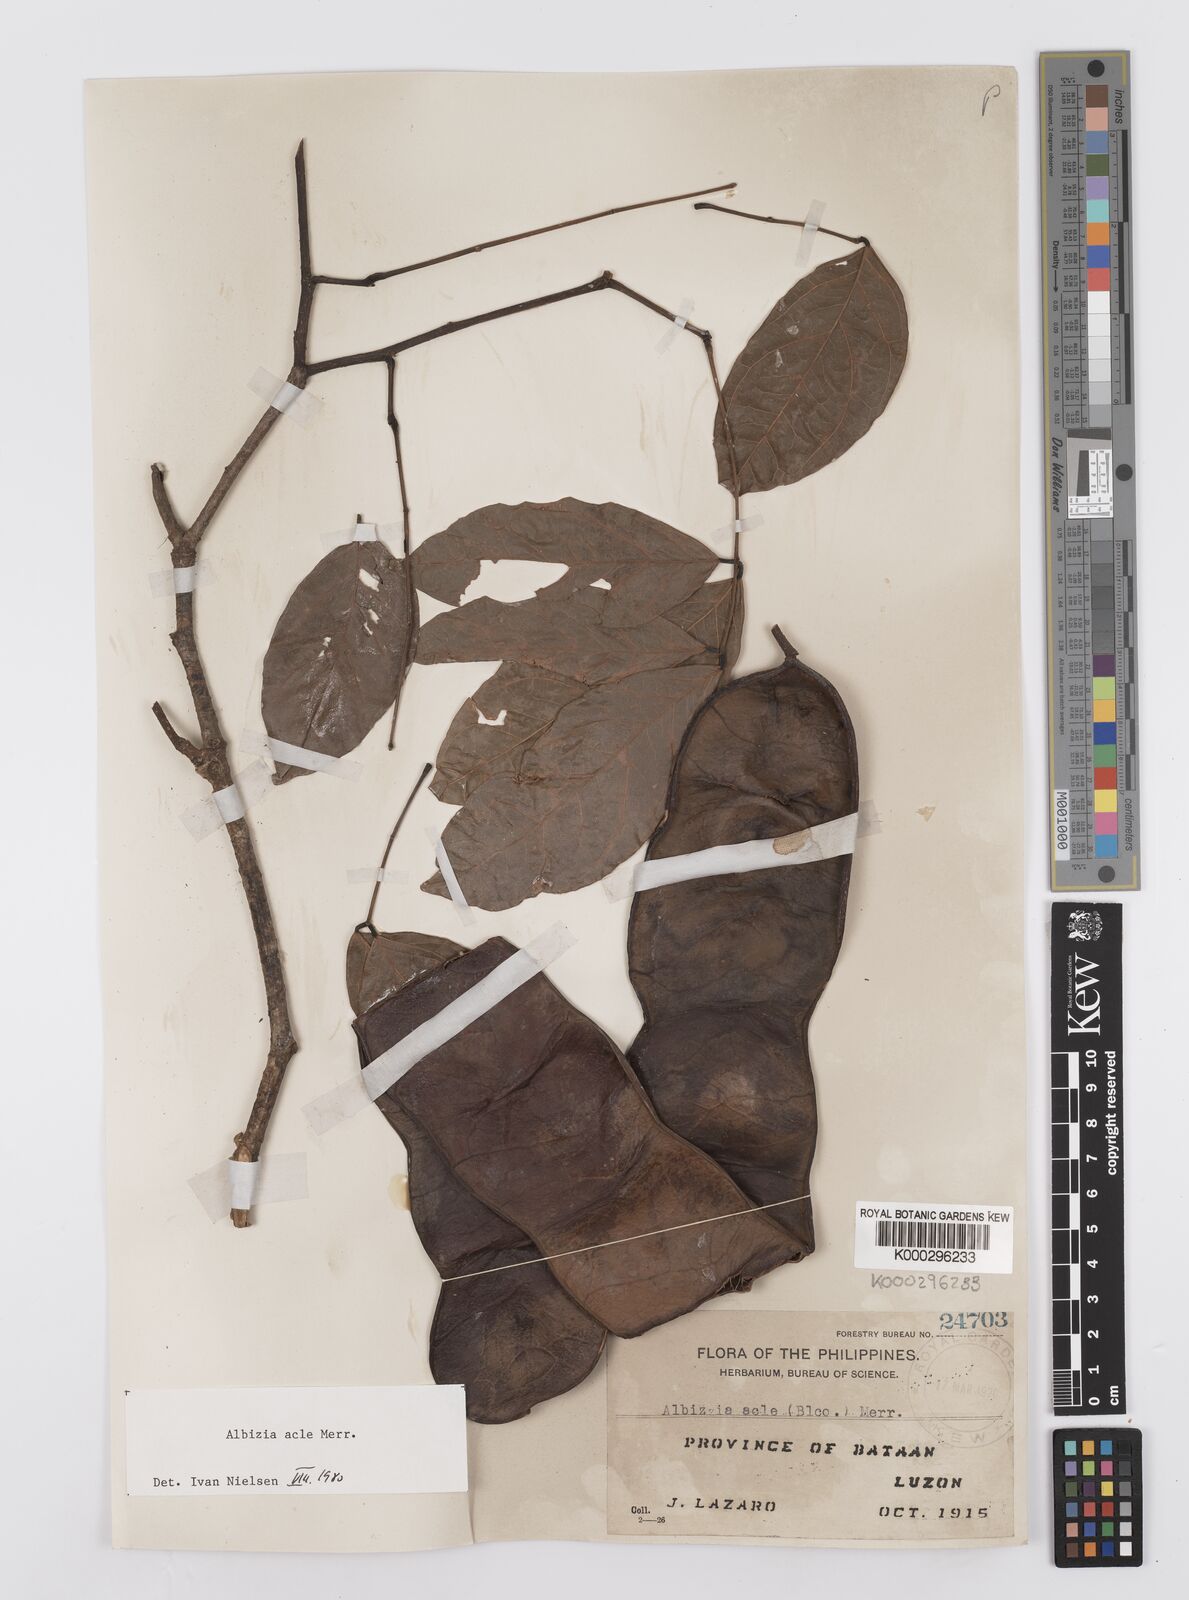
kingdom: Plantae
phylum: Tracheophyta
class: Magnoliopsida
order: Fabales
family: Fabaceae
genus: Albizia
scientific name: Albizia acle
